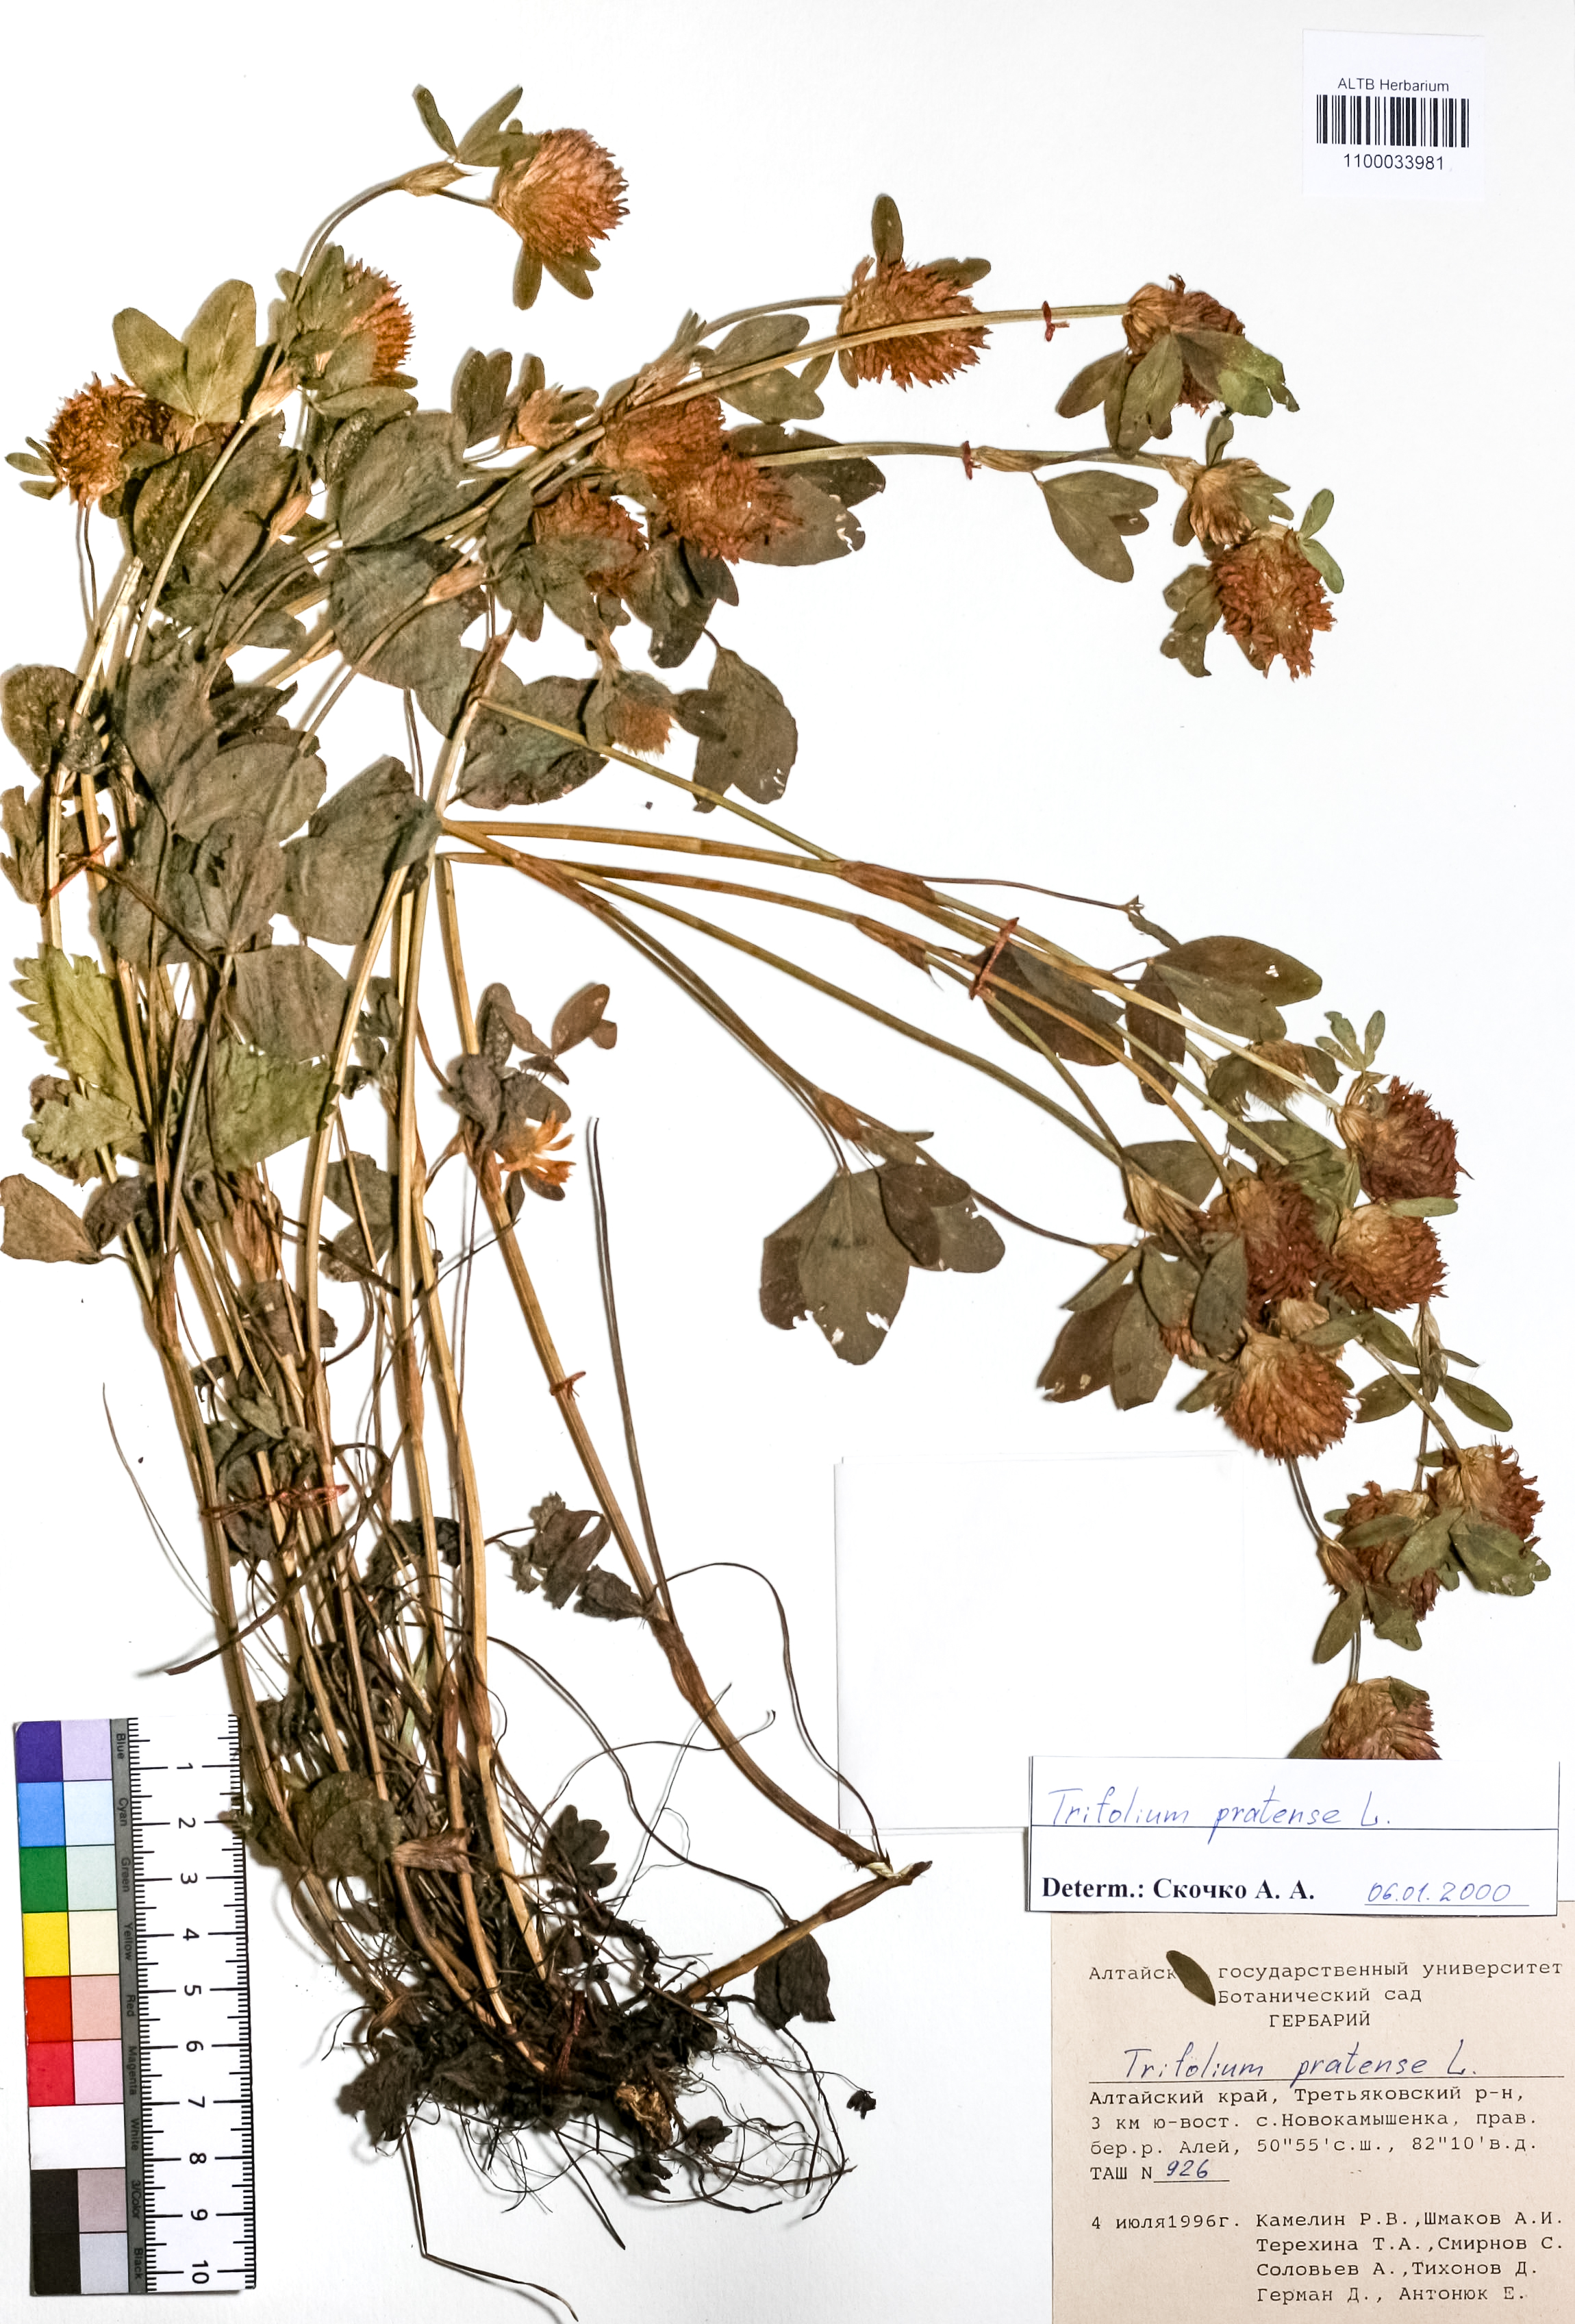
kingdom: Plantae
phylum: Tracheophyta
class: Magnoliopsida
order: Fabales
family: Fabaceae
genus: Trifolium
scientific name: Trifolium pratense
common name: Red clover
